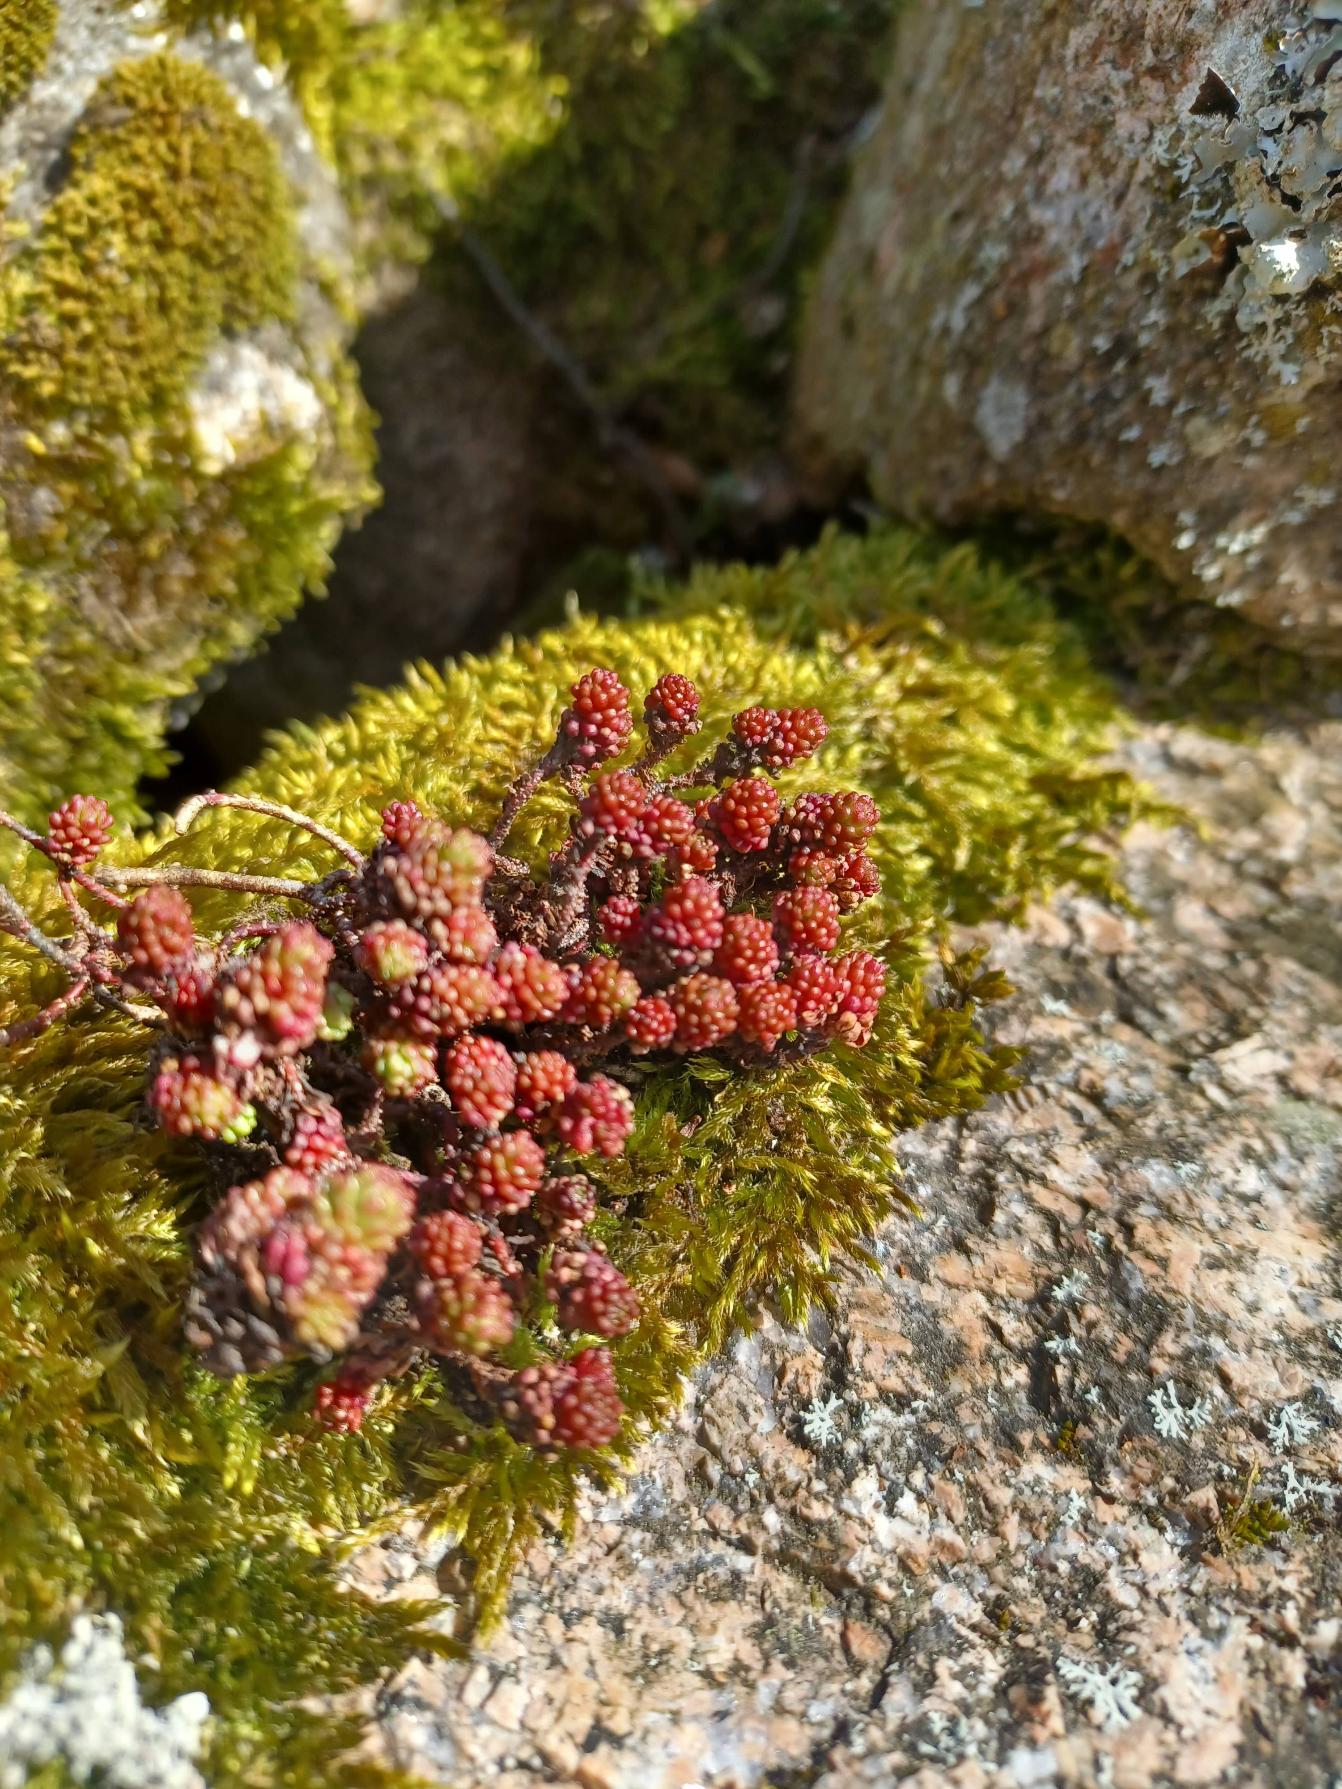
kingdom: Plantae
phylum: Tracheophyta
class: Magnoliopsida
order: Saxifragales
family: Crassulaceae
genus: Sedum
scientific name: Sedum lydium
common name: Mos-stenurt
